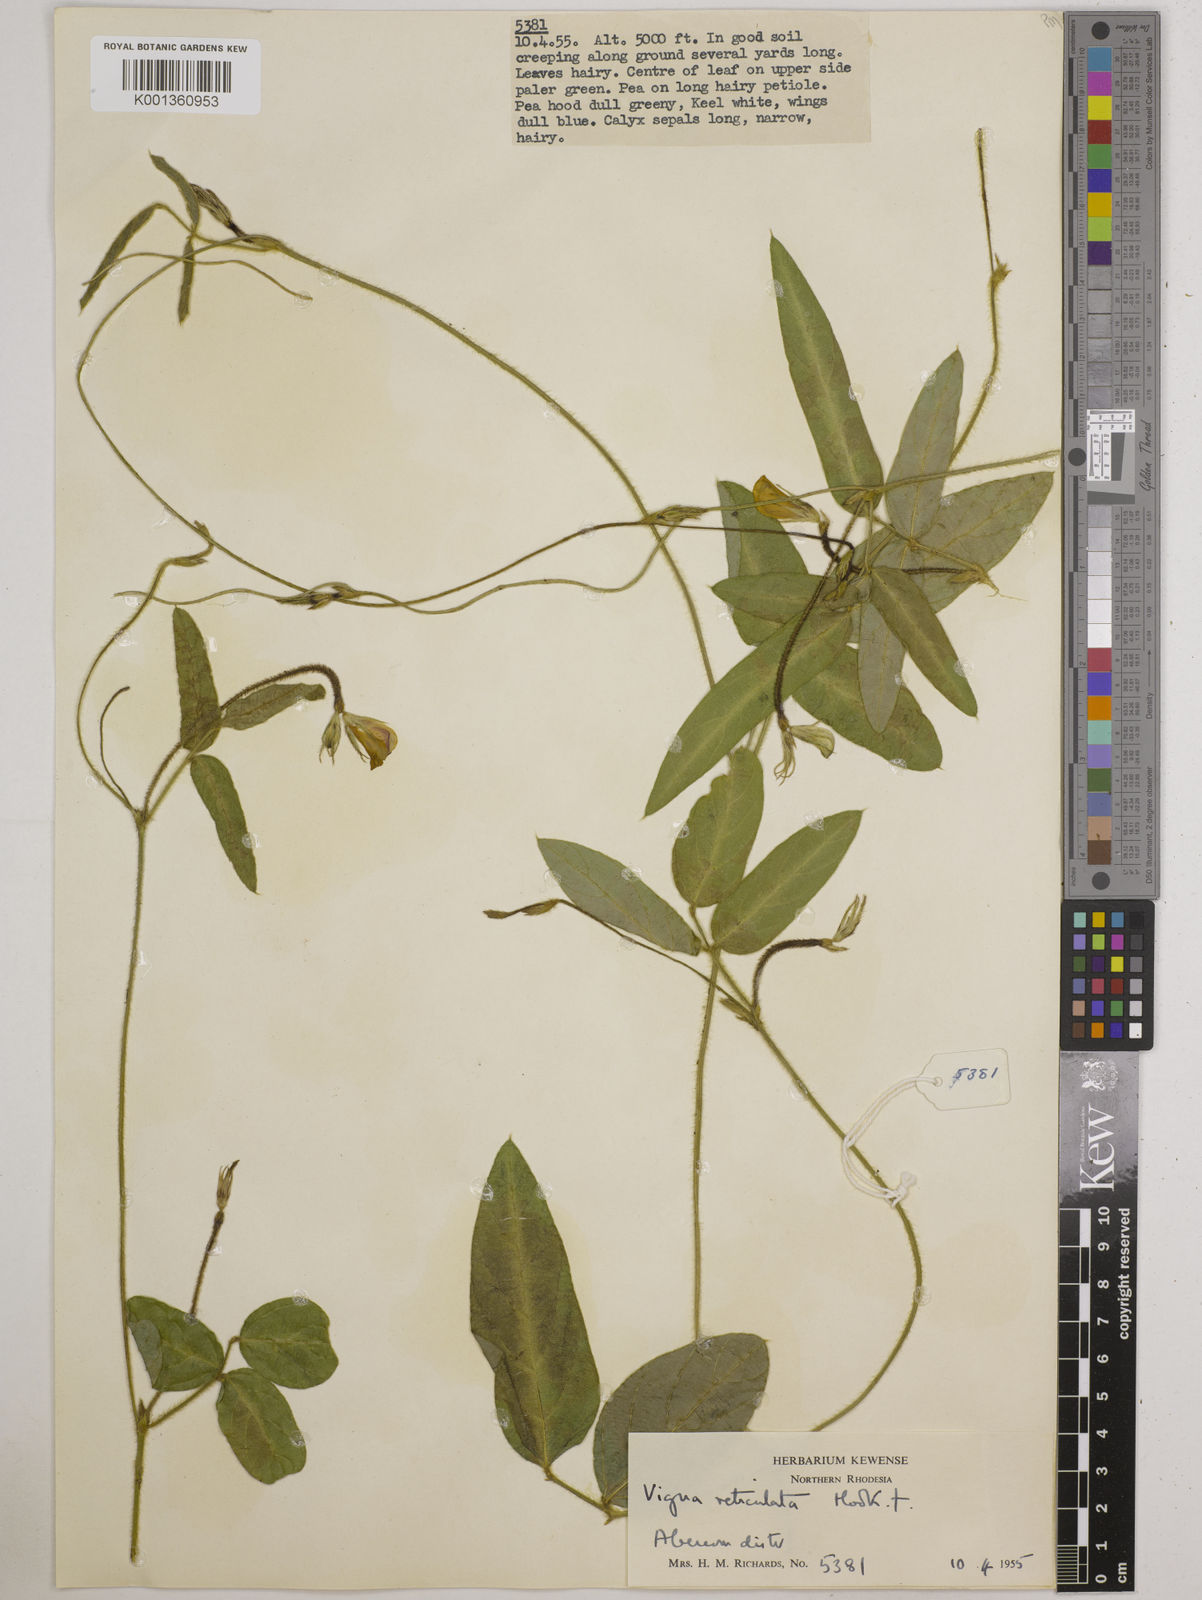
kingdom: Plantae
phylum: Tracheophyta
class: Magnoliopsida
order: Fabales
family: Fabaceae
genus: Vigna
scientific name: Vigna reticulata
